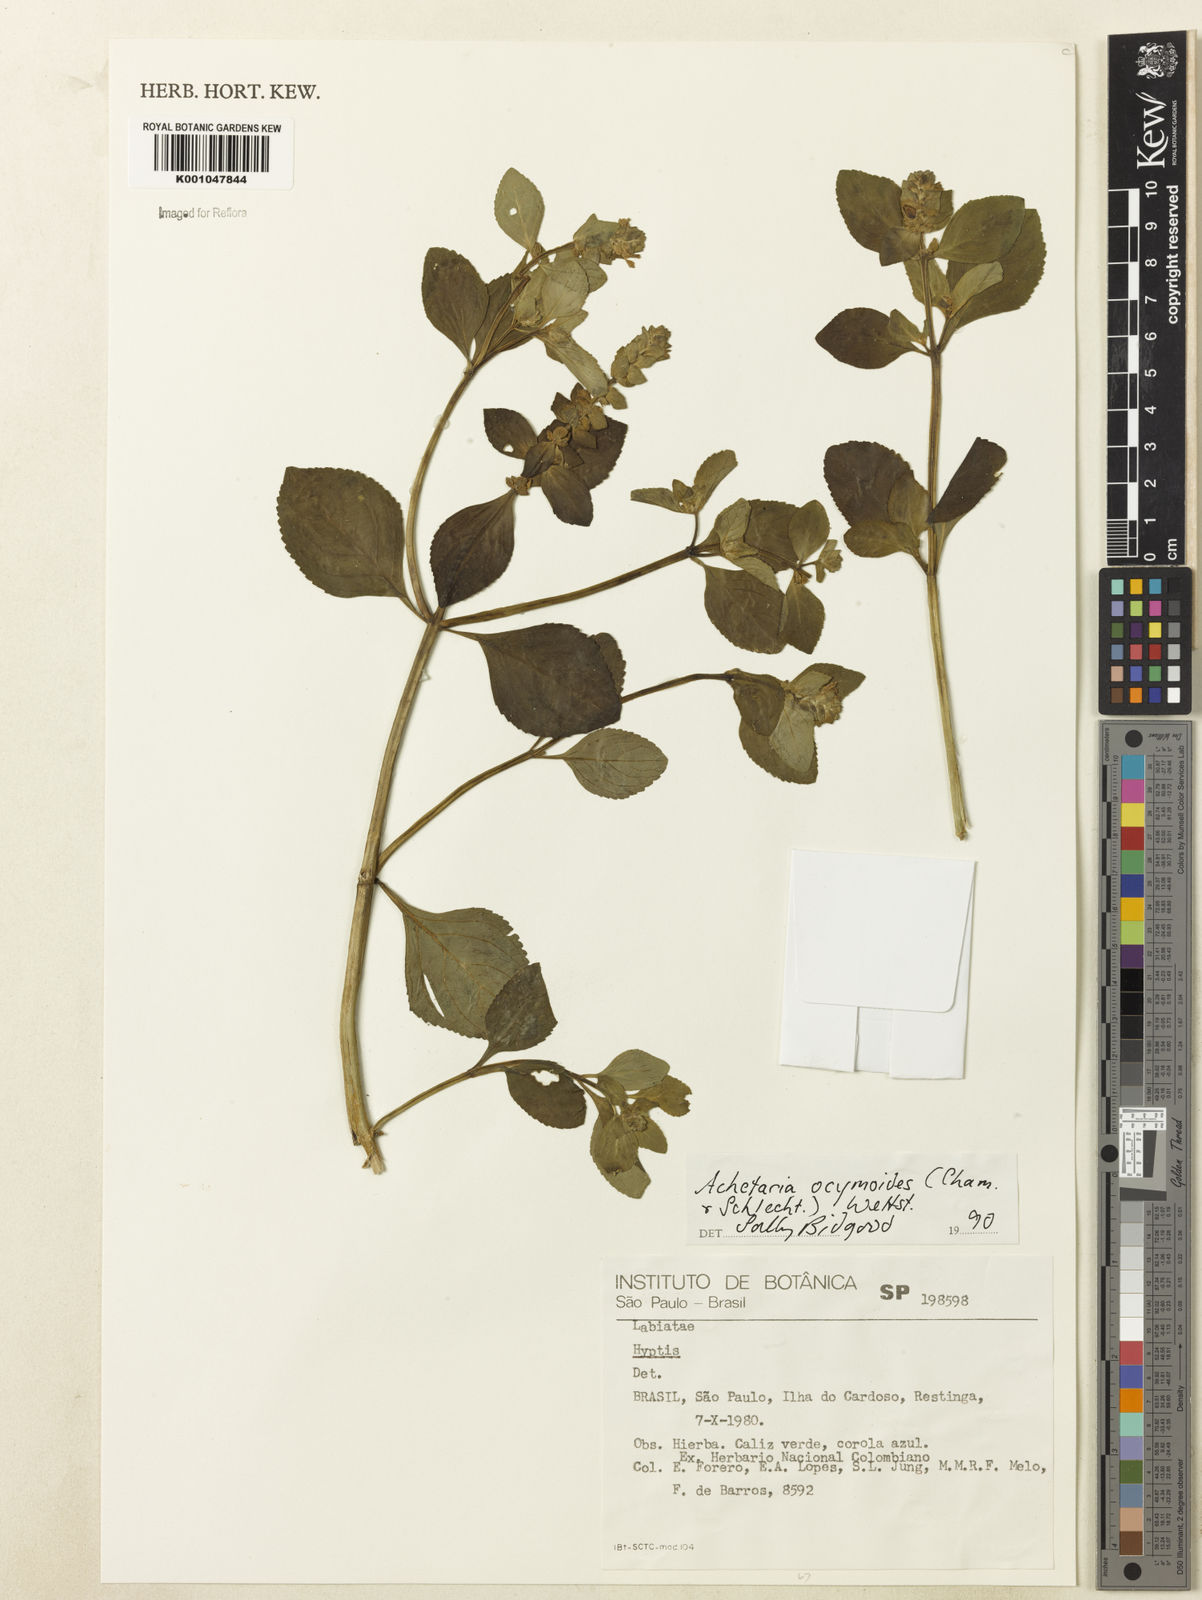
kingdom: Plantae
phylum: Tracheophyta
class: Magnoliopsida
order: Lamiales
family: Plantaginaceae
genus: Matourea
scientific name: Matourea ocymoides
